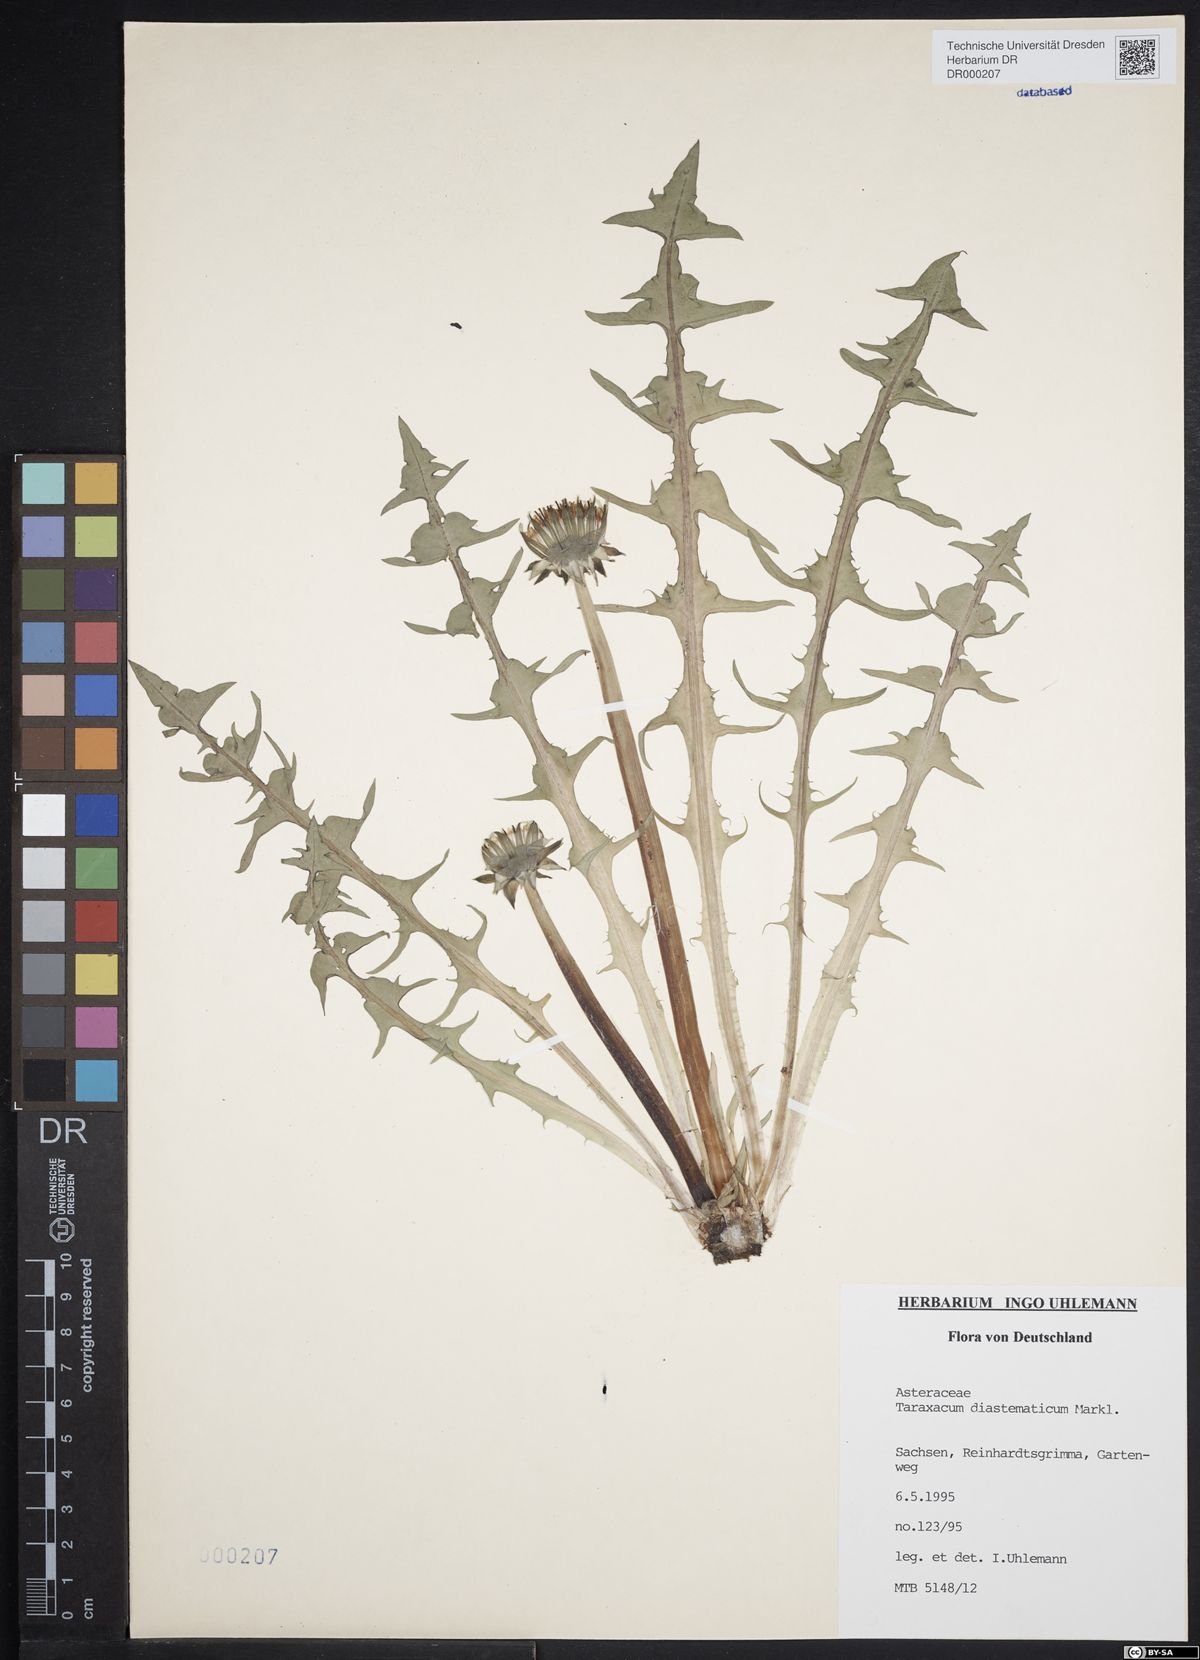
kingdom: Plantae
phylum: Tracheophyta
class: Magnoliopsida
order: Asterales
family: Asteraceae
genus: Taraxacum
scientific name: Taraxacum diastematicum
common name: Bulbous-lobed dandelion
